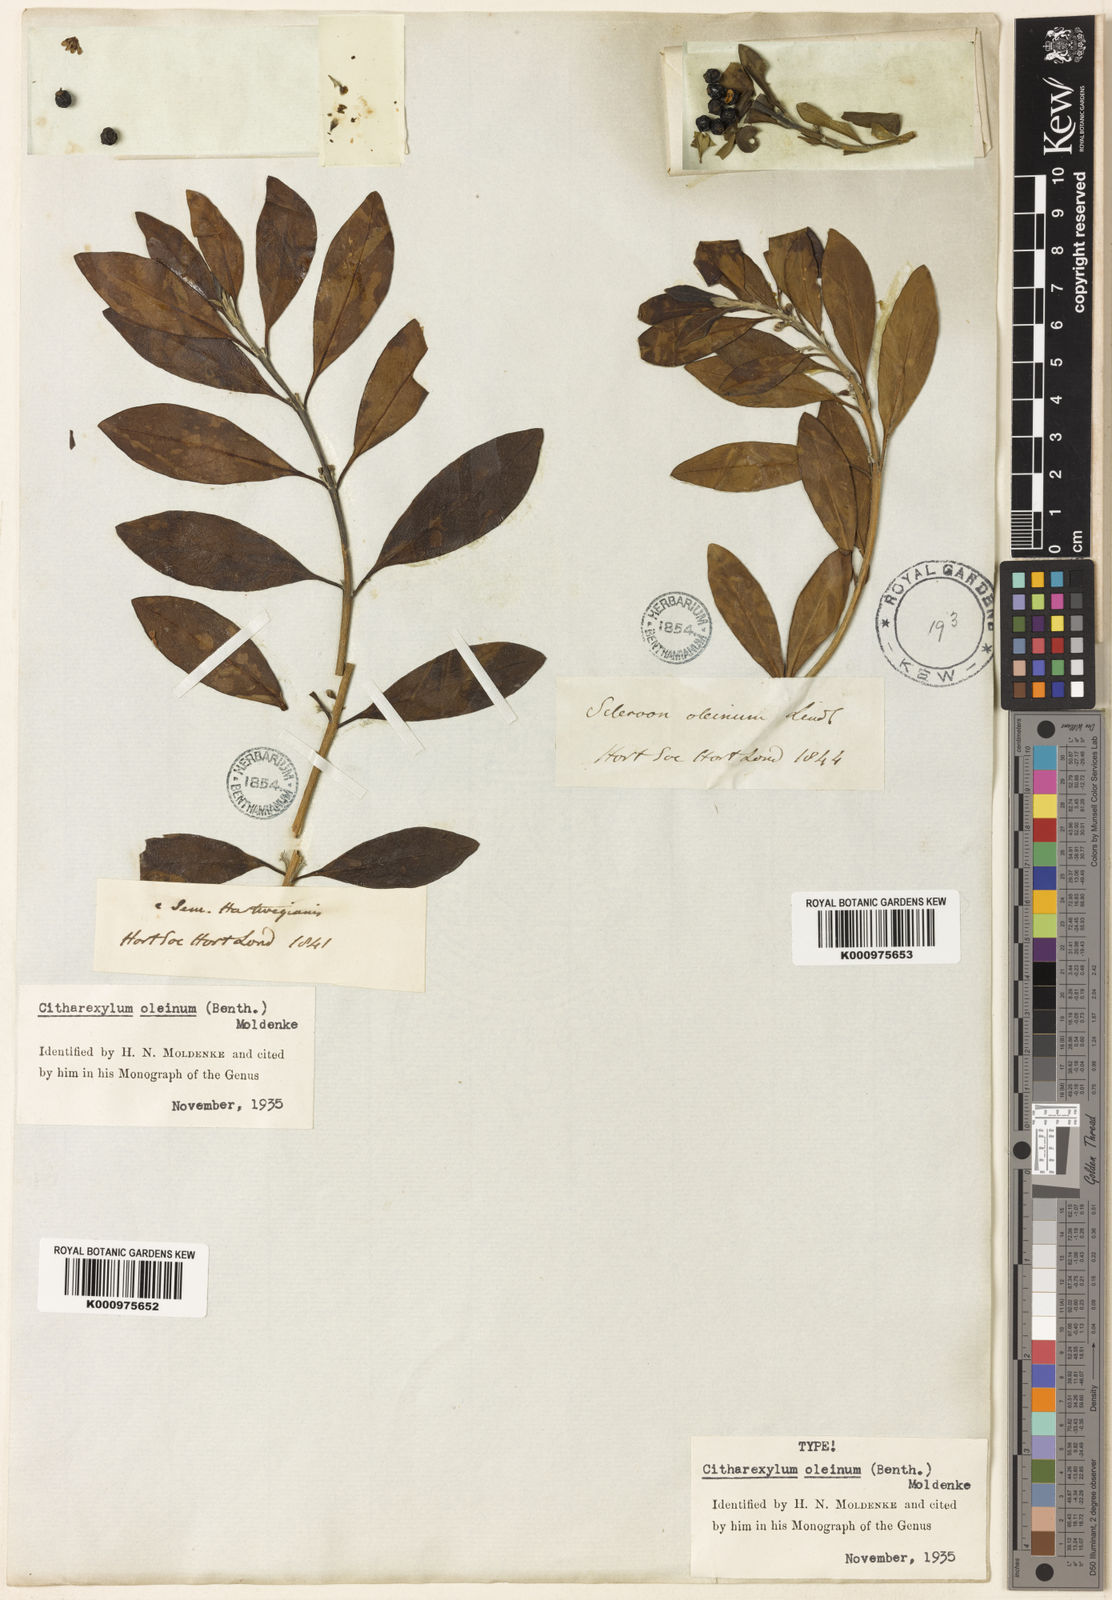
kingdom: Plantae
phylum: Tracheophyta
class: Magnoliopsida
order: Lamiales
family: Verbenaceae
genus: Citharexylum
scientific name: Citharexylum oleinum
